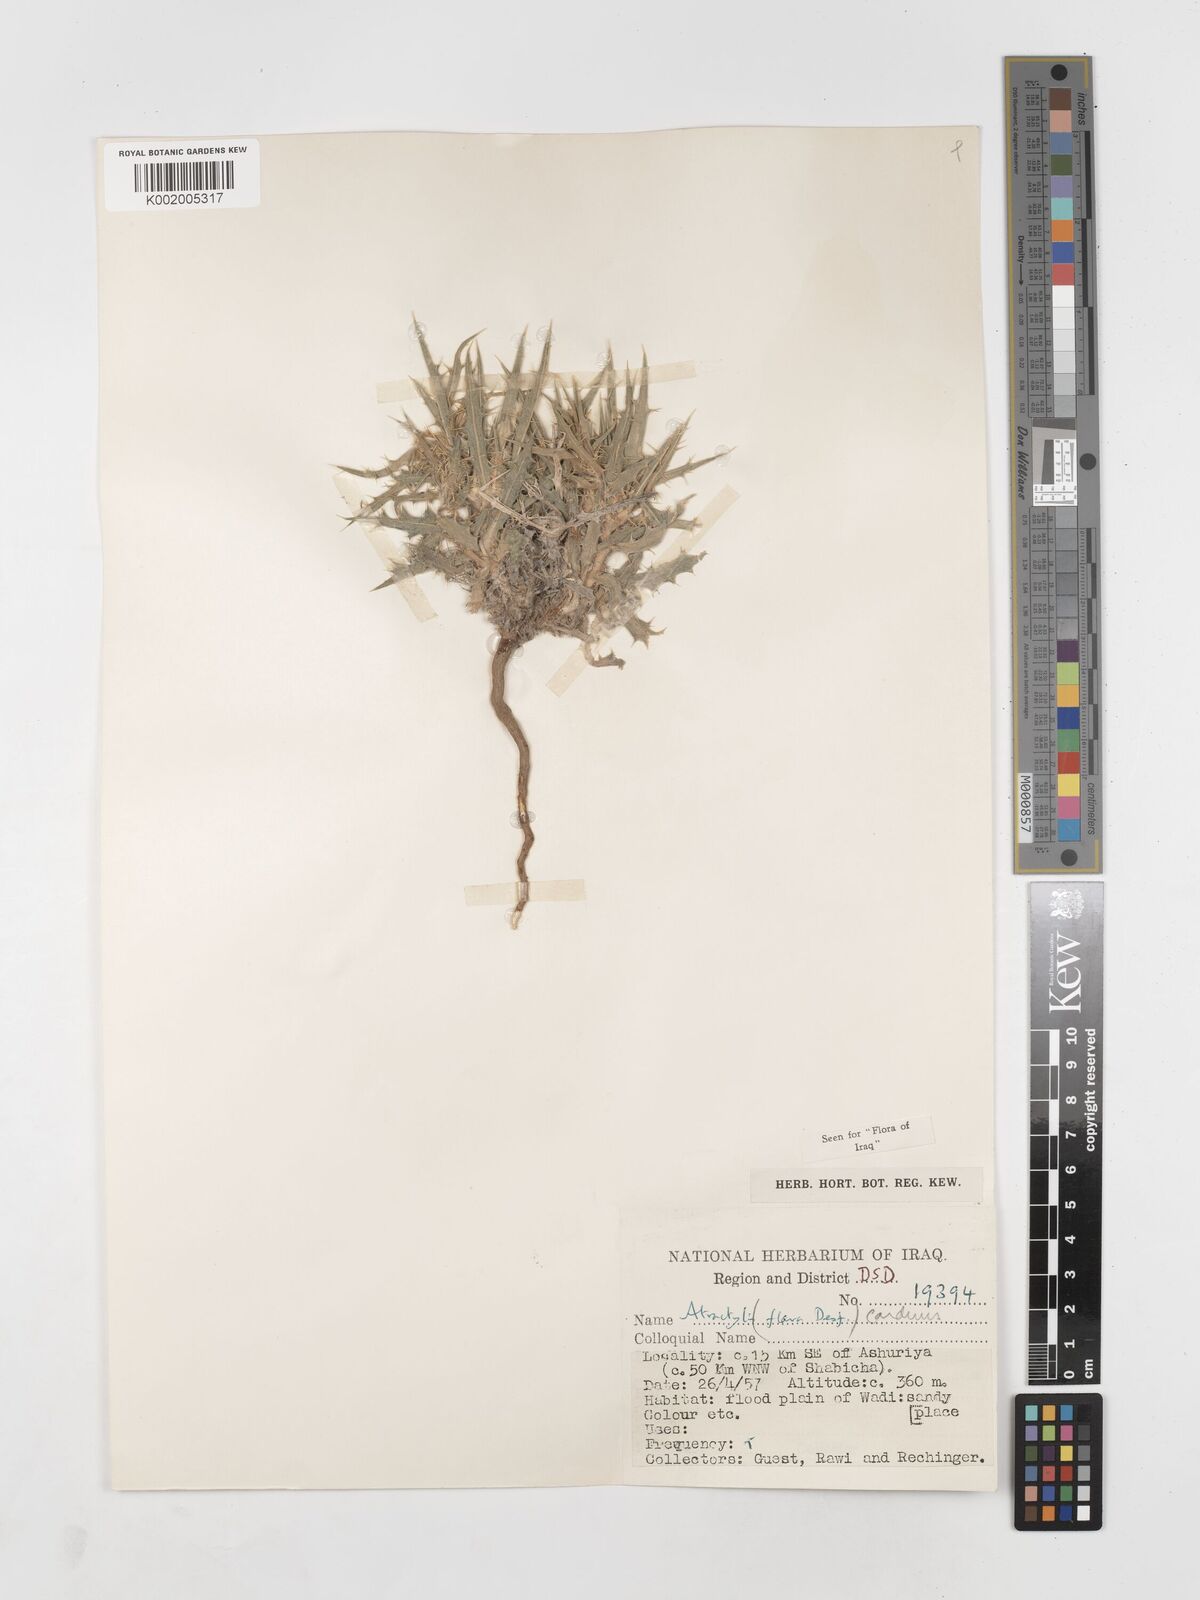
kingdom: Plantae
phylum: Tracheophyta
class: Magnoliopsida
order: Asterales
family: Asteraceae
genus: Atractylis
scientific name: Atractylis carduus
